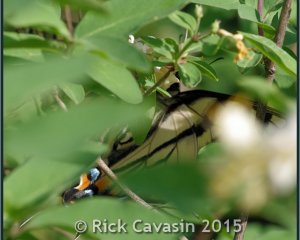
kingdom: Animalia
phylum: Arthropoda
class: Insecta
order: Lepidoptera
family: Papilionidae
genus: Pterourus
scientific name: Pterourus canadensis
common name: Canadian Tiger Swallowtail
